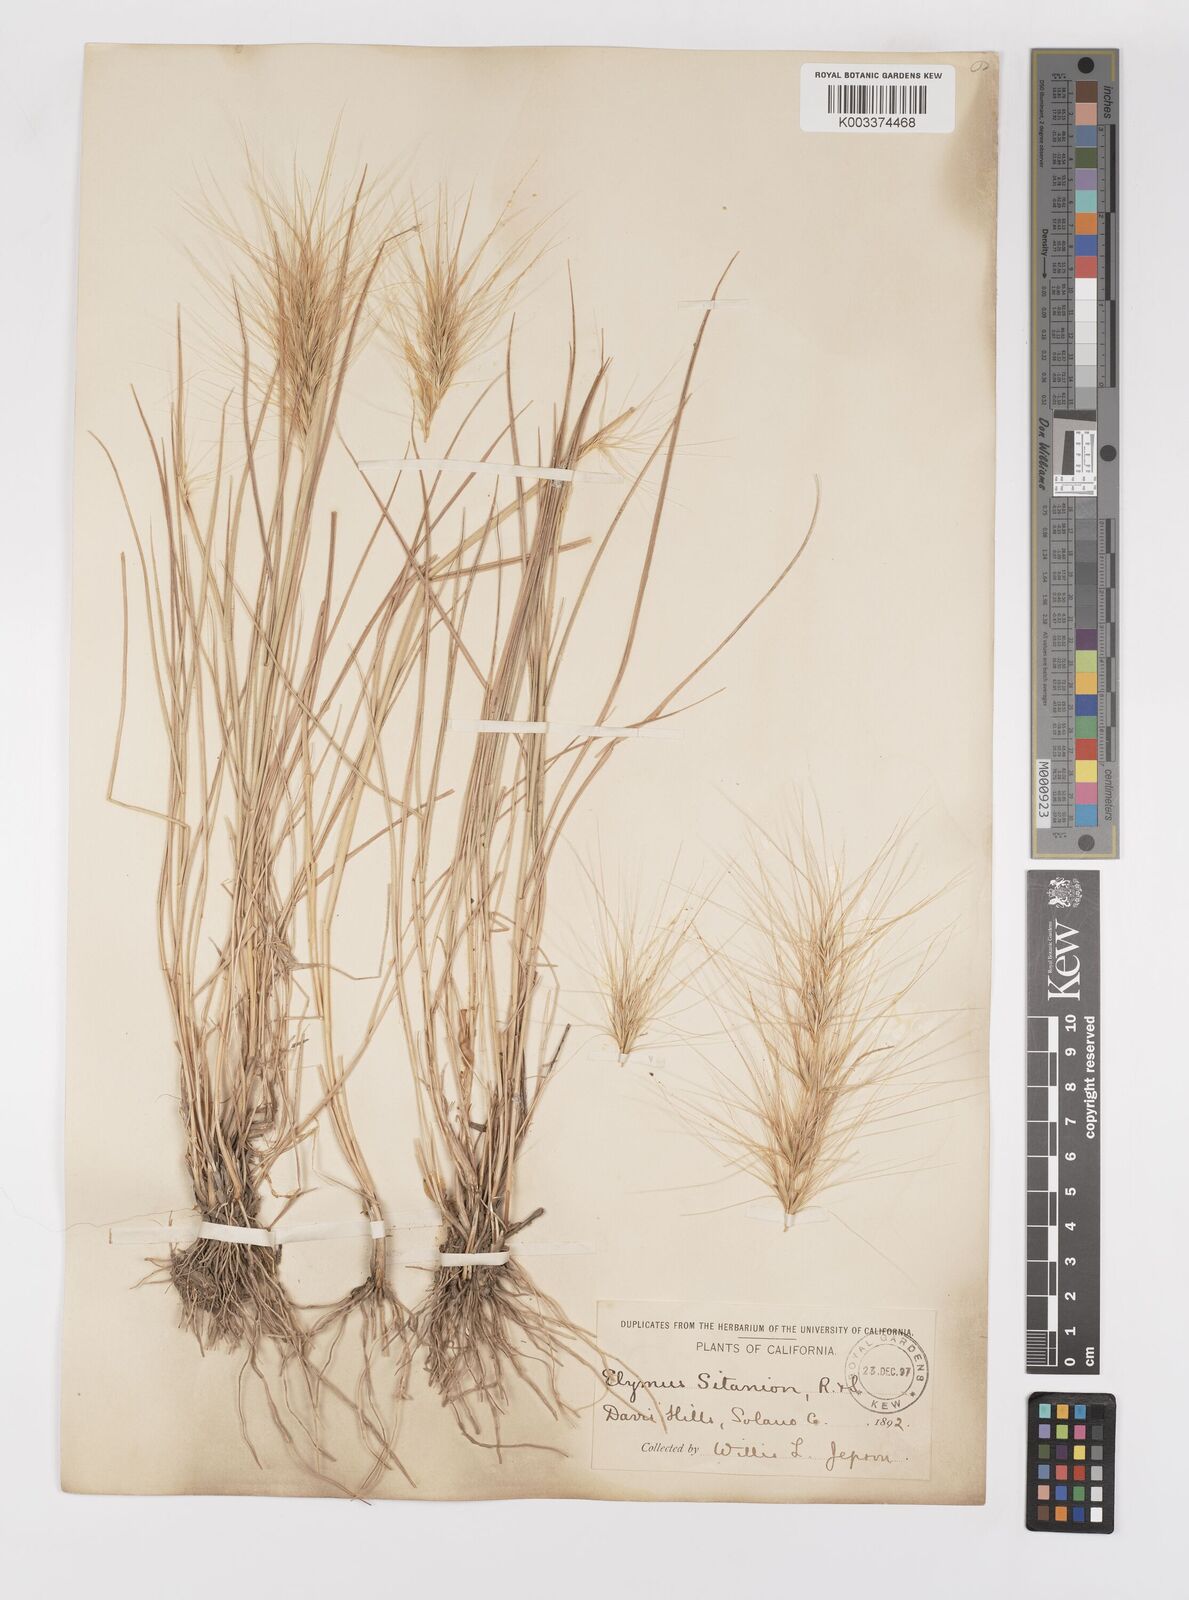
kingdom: Plantae
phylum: Tracheophyta
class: Liliopsida
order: Poales
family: Poaceae
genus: Elymus
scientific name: Elymus multisetus
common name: Big squirreltail
